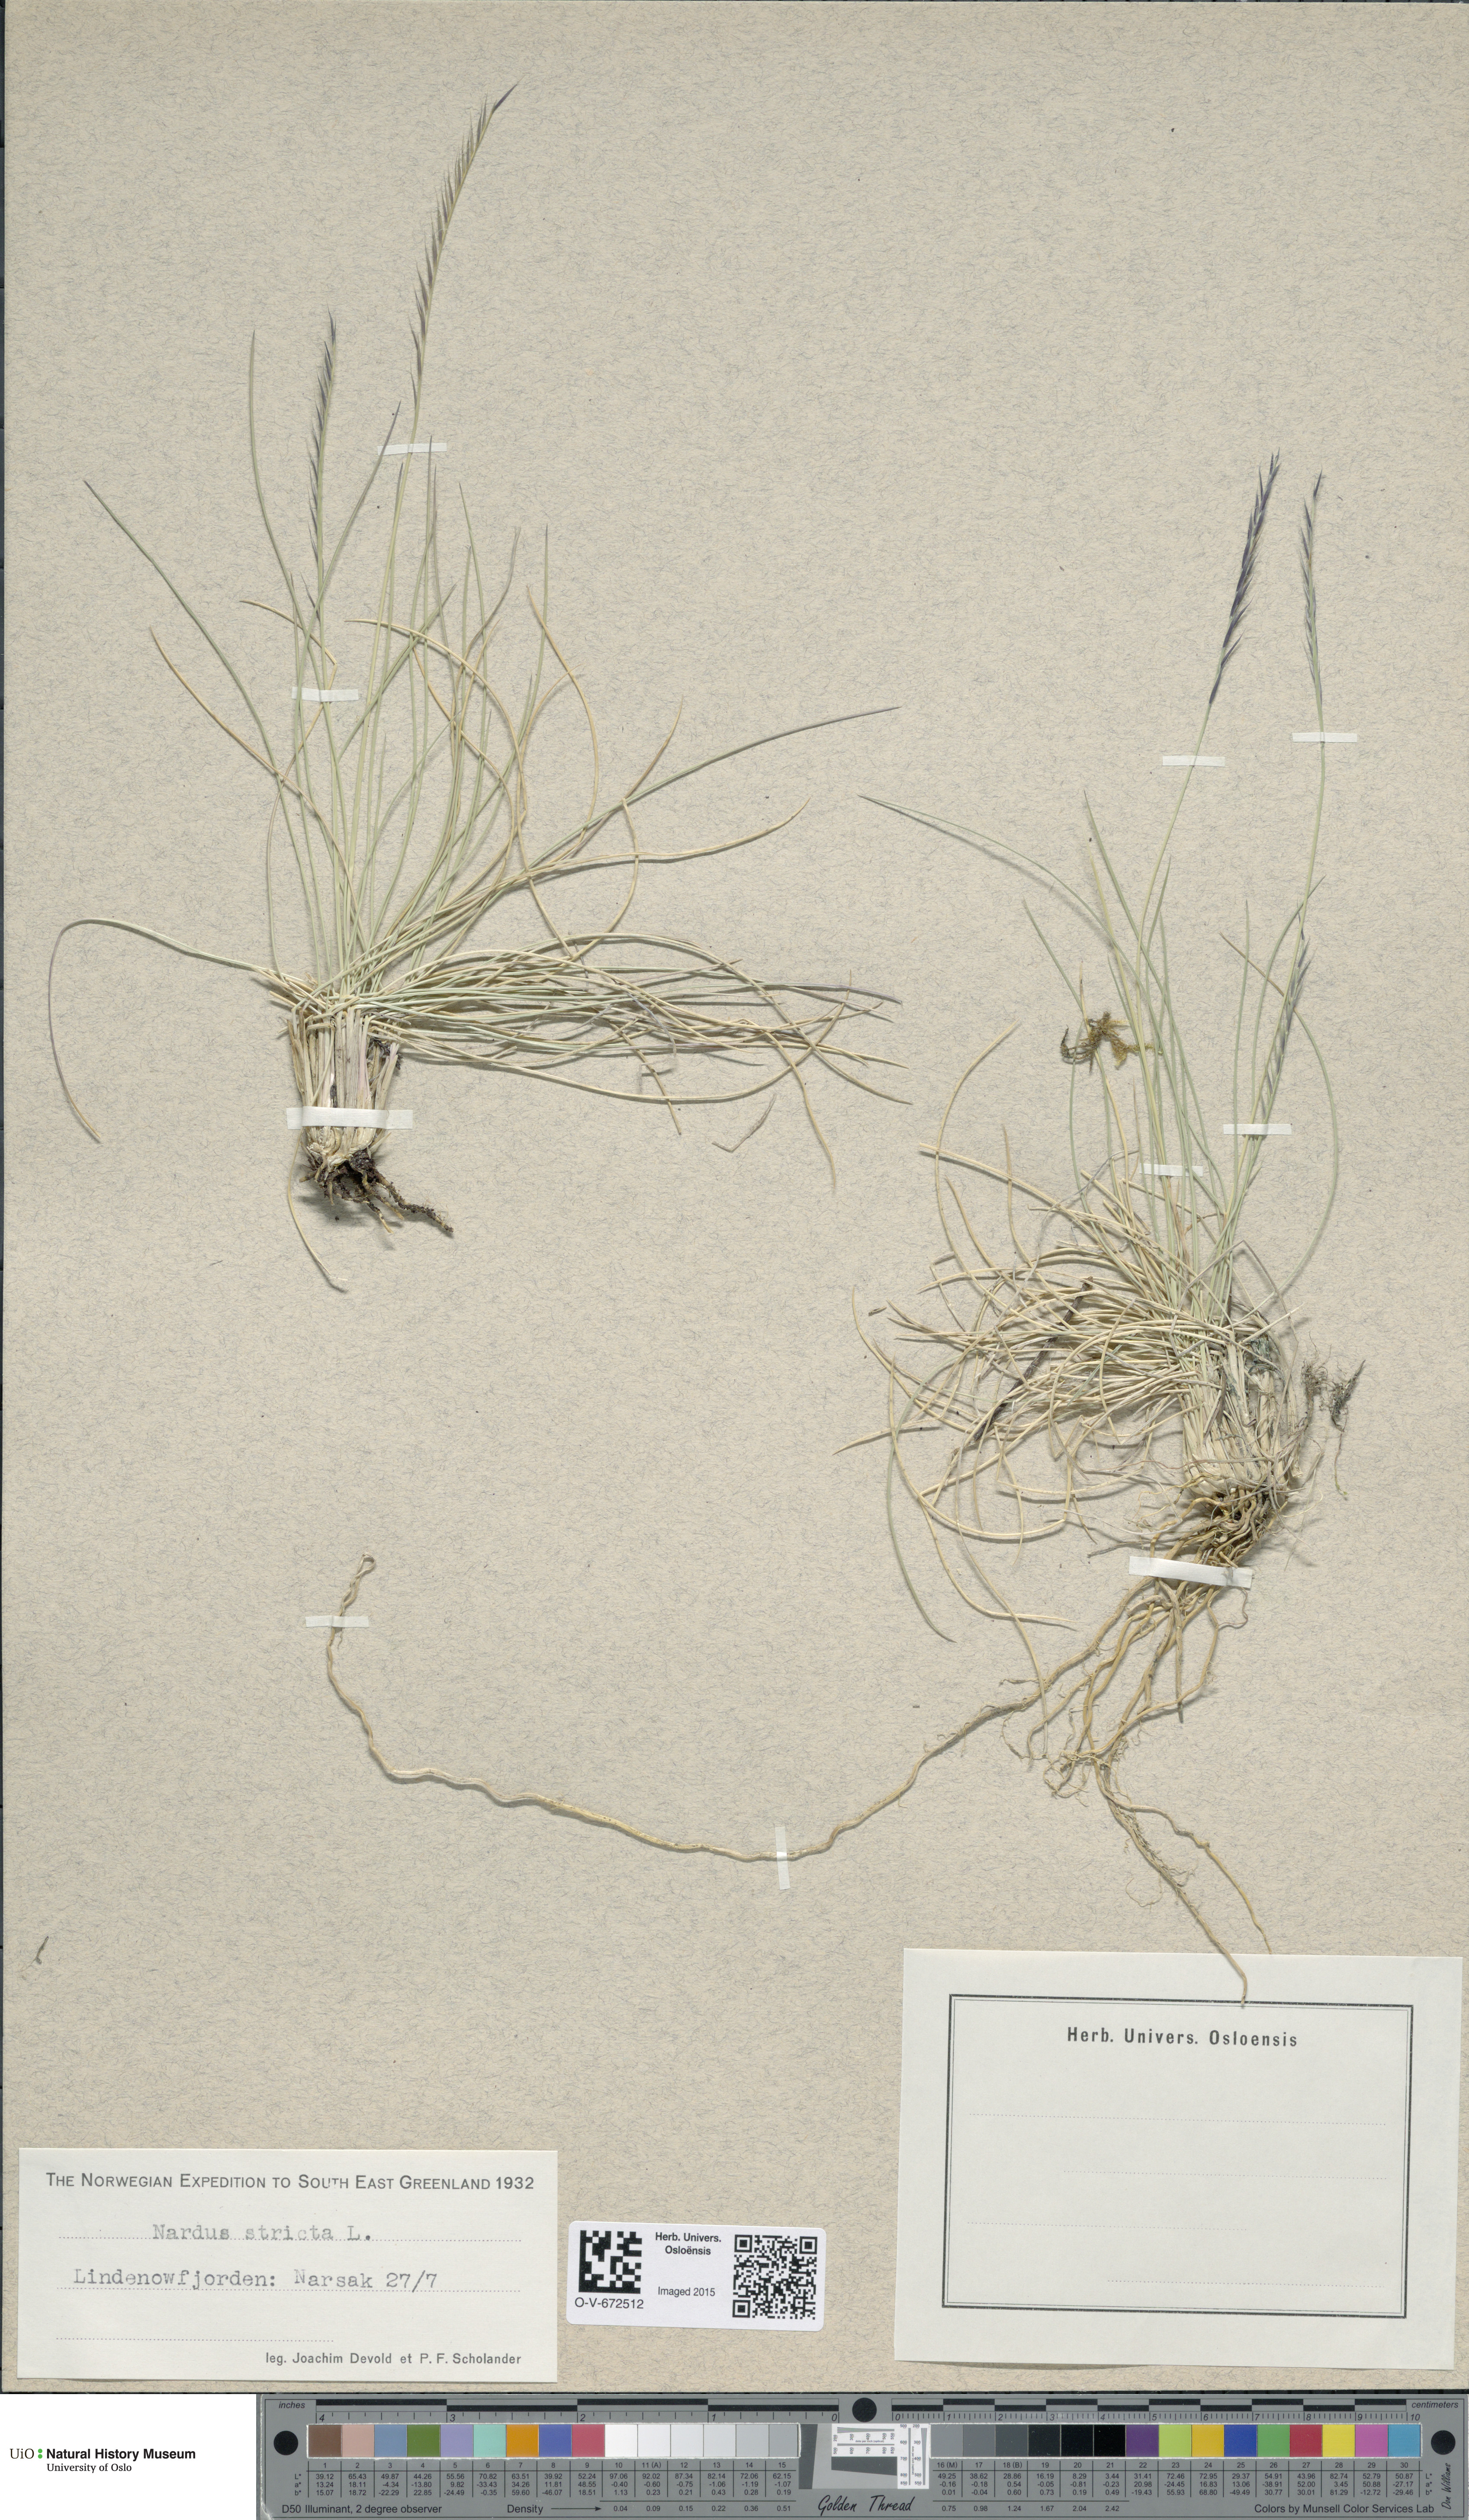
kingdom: Plantae
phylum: Tracheophyta
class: Liliopsida
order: Poales
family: Poaceae
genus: Nardus
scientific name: Nardus stricta
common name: Mat-grass
